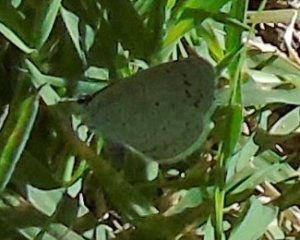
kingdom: Animalia
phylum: Arthropoda
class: Insecta
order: Lepidoptera
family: Lycaenidae
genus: Celastrina
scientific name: Celastrina ladon
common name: Spring Azure
